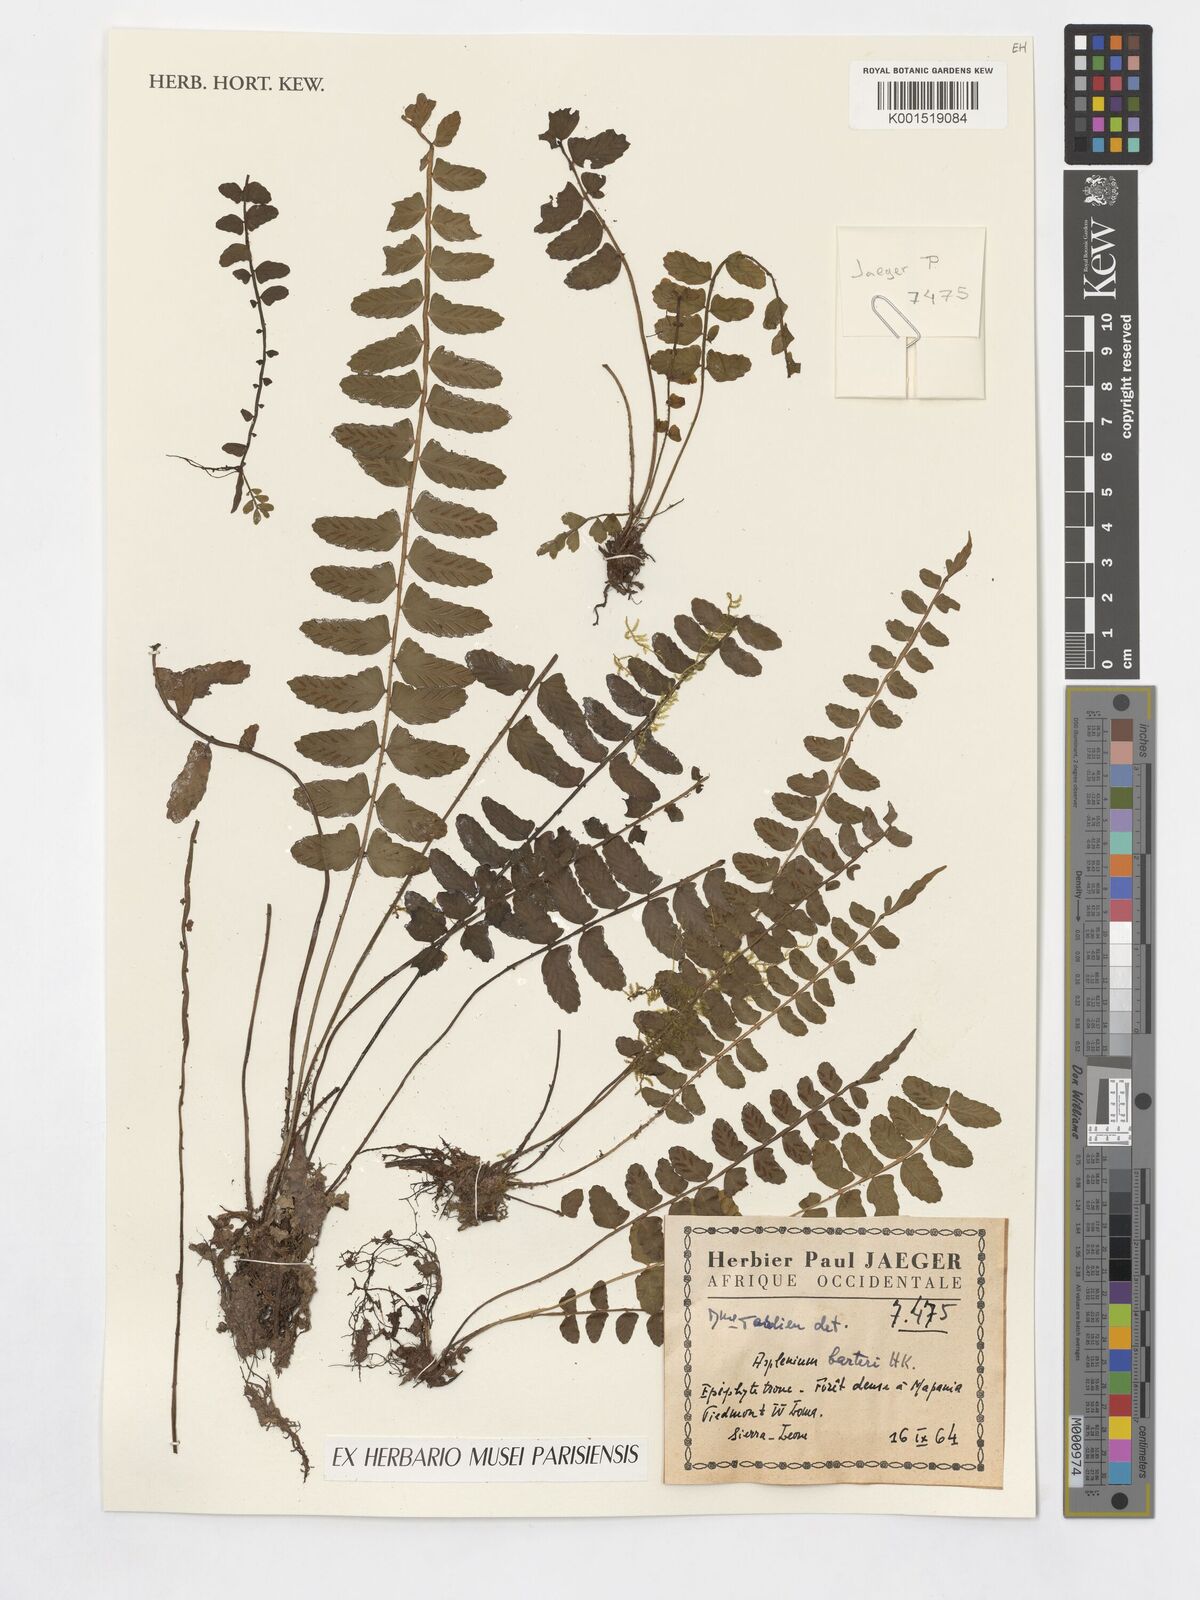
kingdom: Plantae
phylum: Tracheophyta
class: Polypodiopsida
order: Polypodiales
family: Aspleniaceae
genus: Asplenium
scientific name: Asplenium barteri
